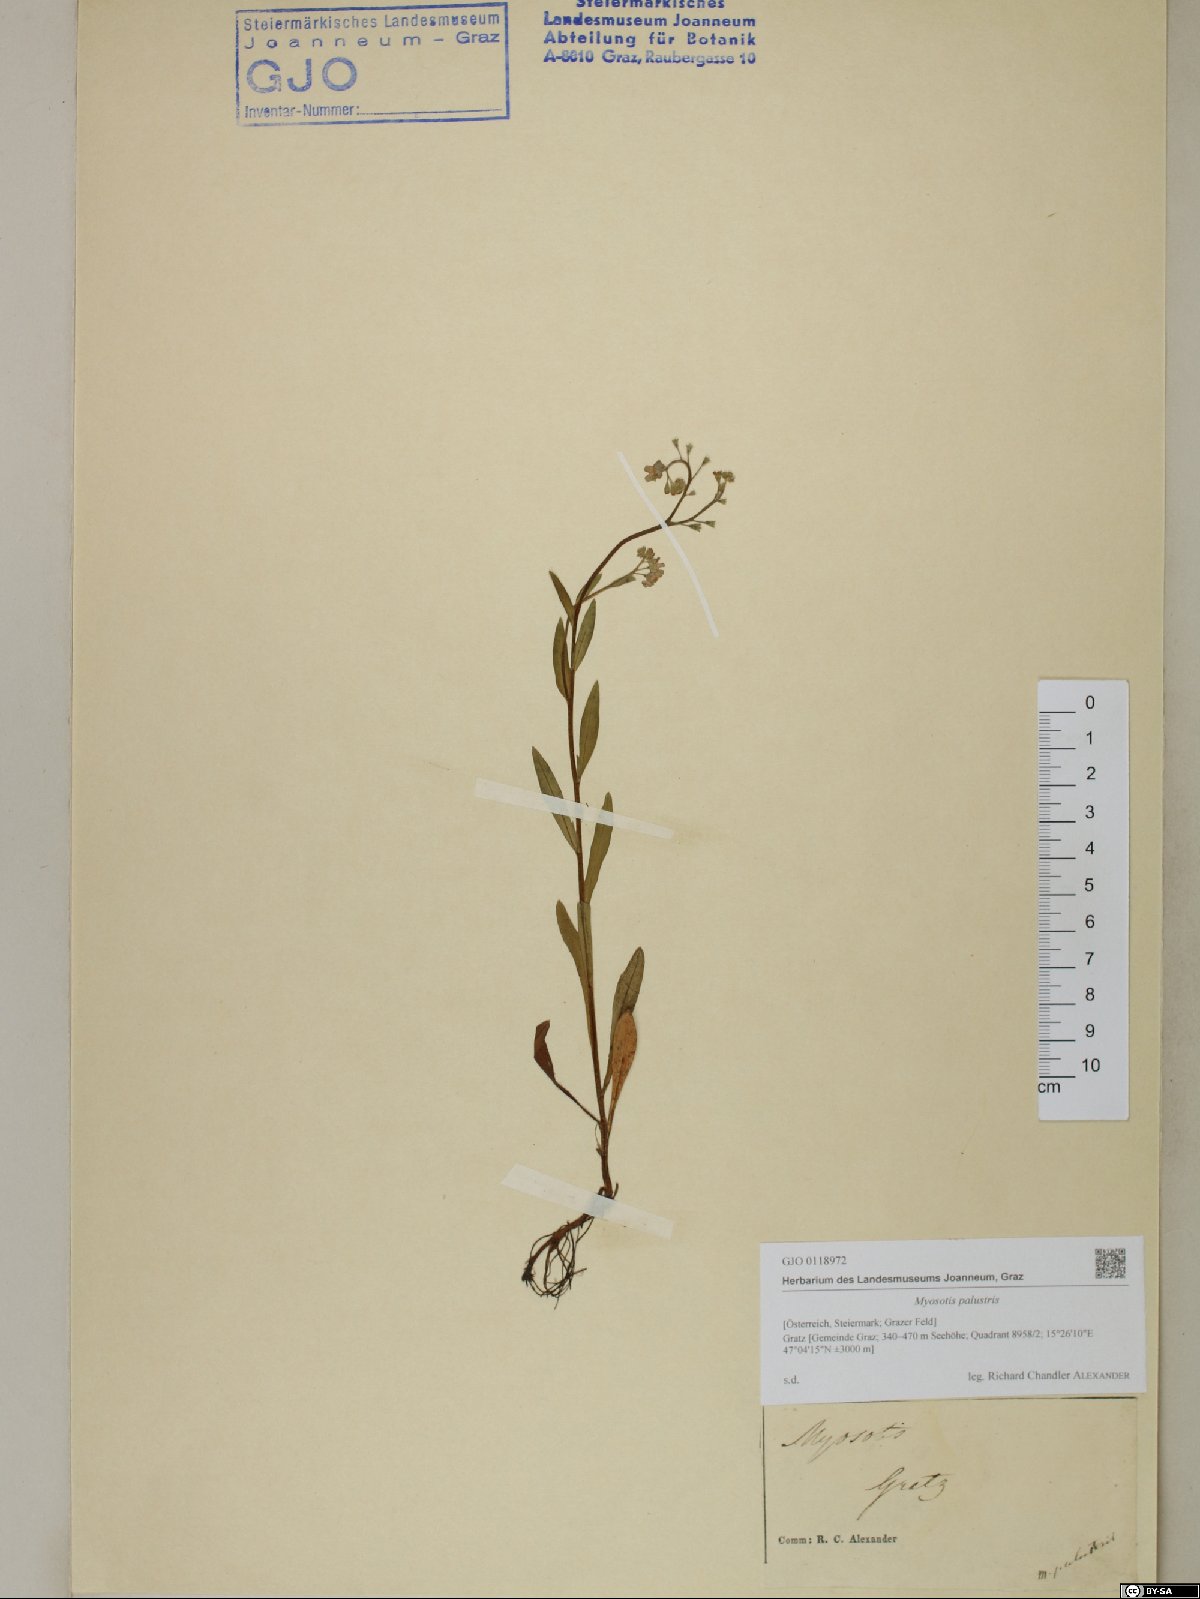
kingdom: Plantae
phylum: Tracheophyta
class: Magnoliopsida
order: Boraginales
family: Boraginaceae
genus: Myosotis
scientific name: Myosotis scorpioides
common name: Water forget-me-not
